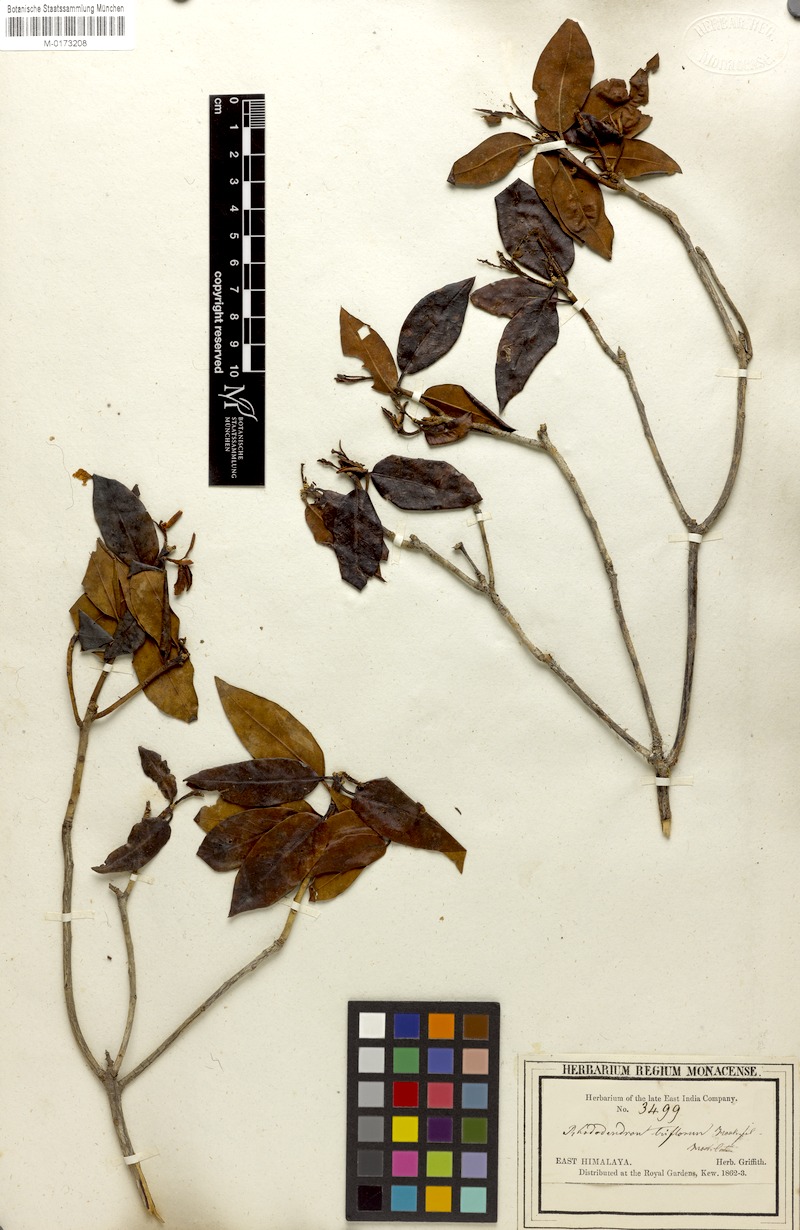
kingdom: Plantae
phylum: Tracheophyta
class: Magnoliopsida
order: Ericales
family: Ericaceae
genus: Rhododendron
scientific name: Rhododendron triflorum
